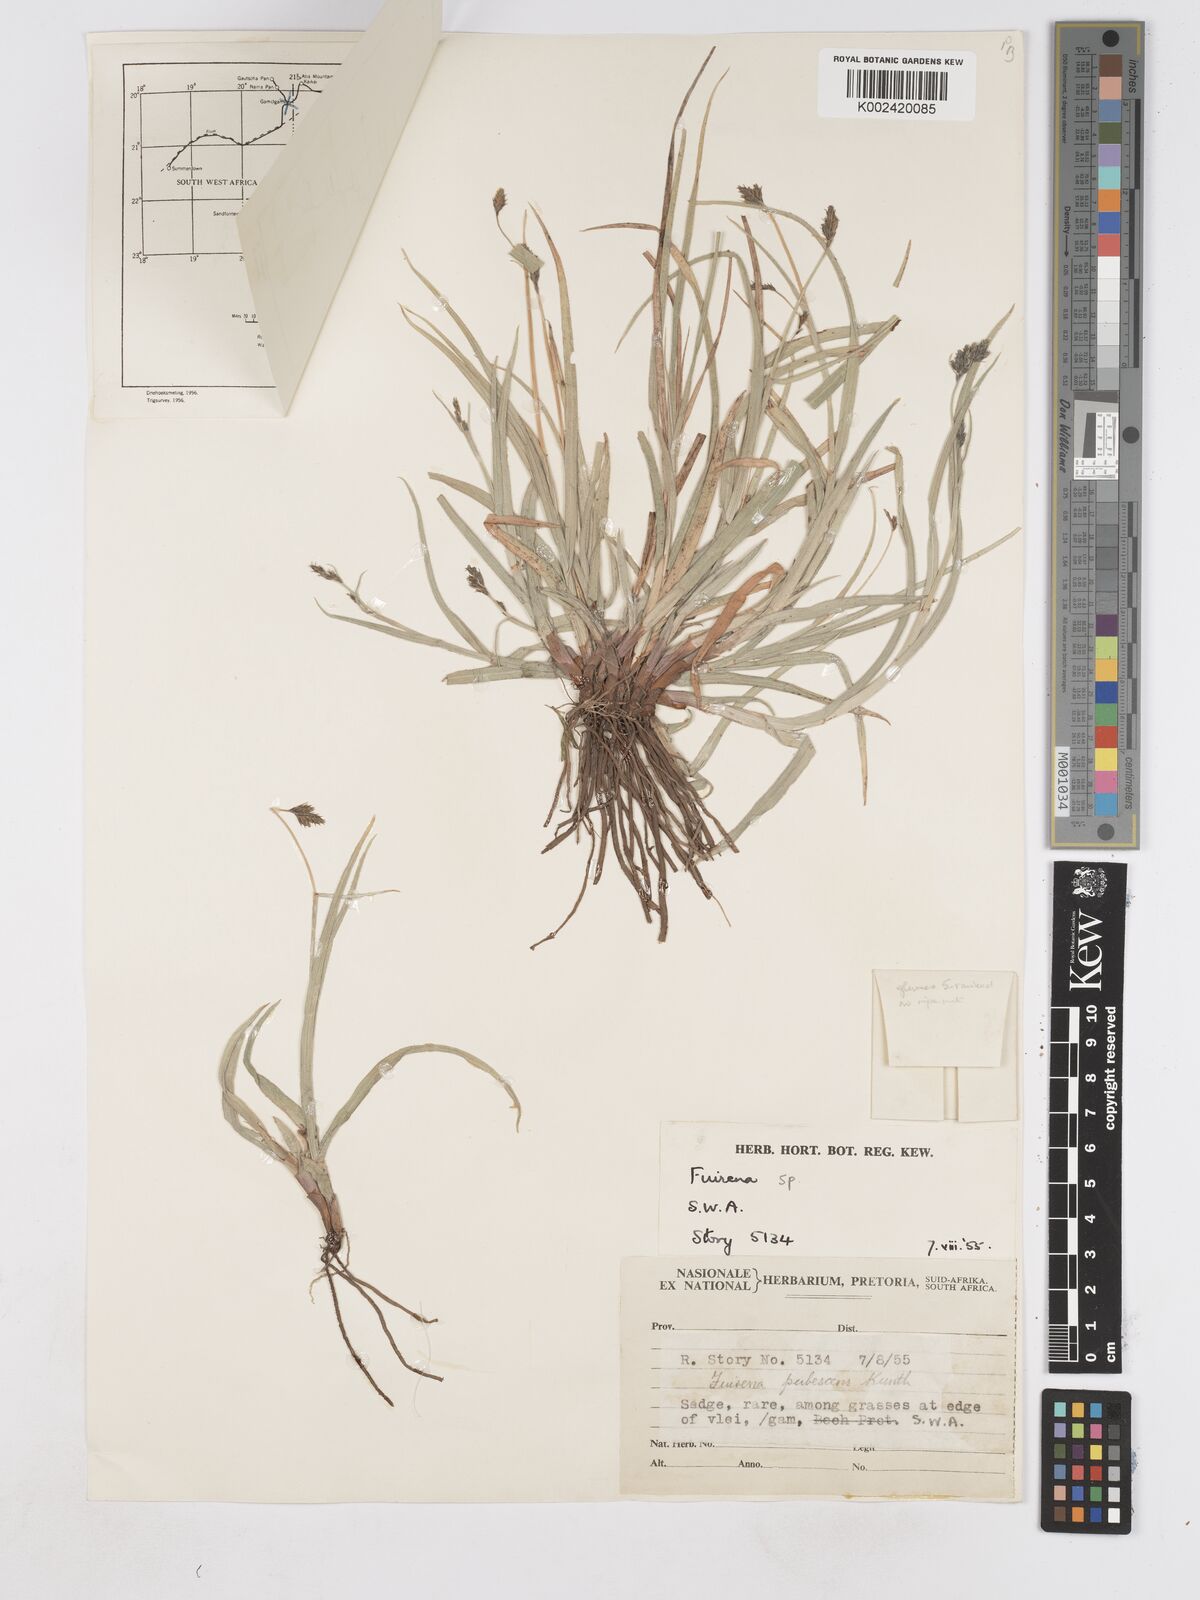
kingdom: Plantae
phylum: Tracheophyta
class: Liliopsida
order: Poales
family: Cyperaceae
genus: Fuirena
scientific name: Fuirena pubescens
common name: Hairy sedge
